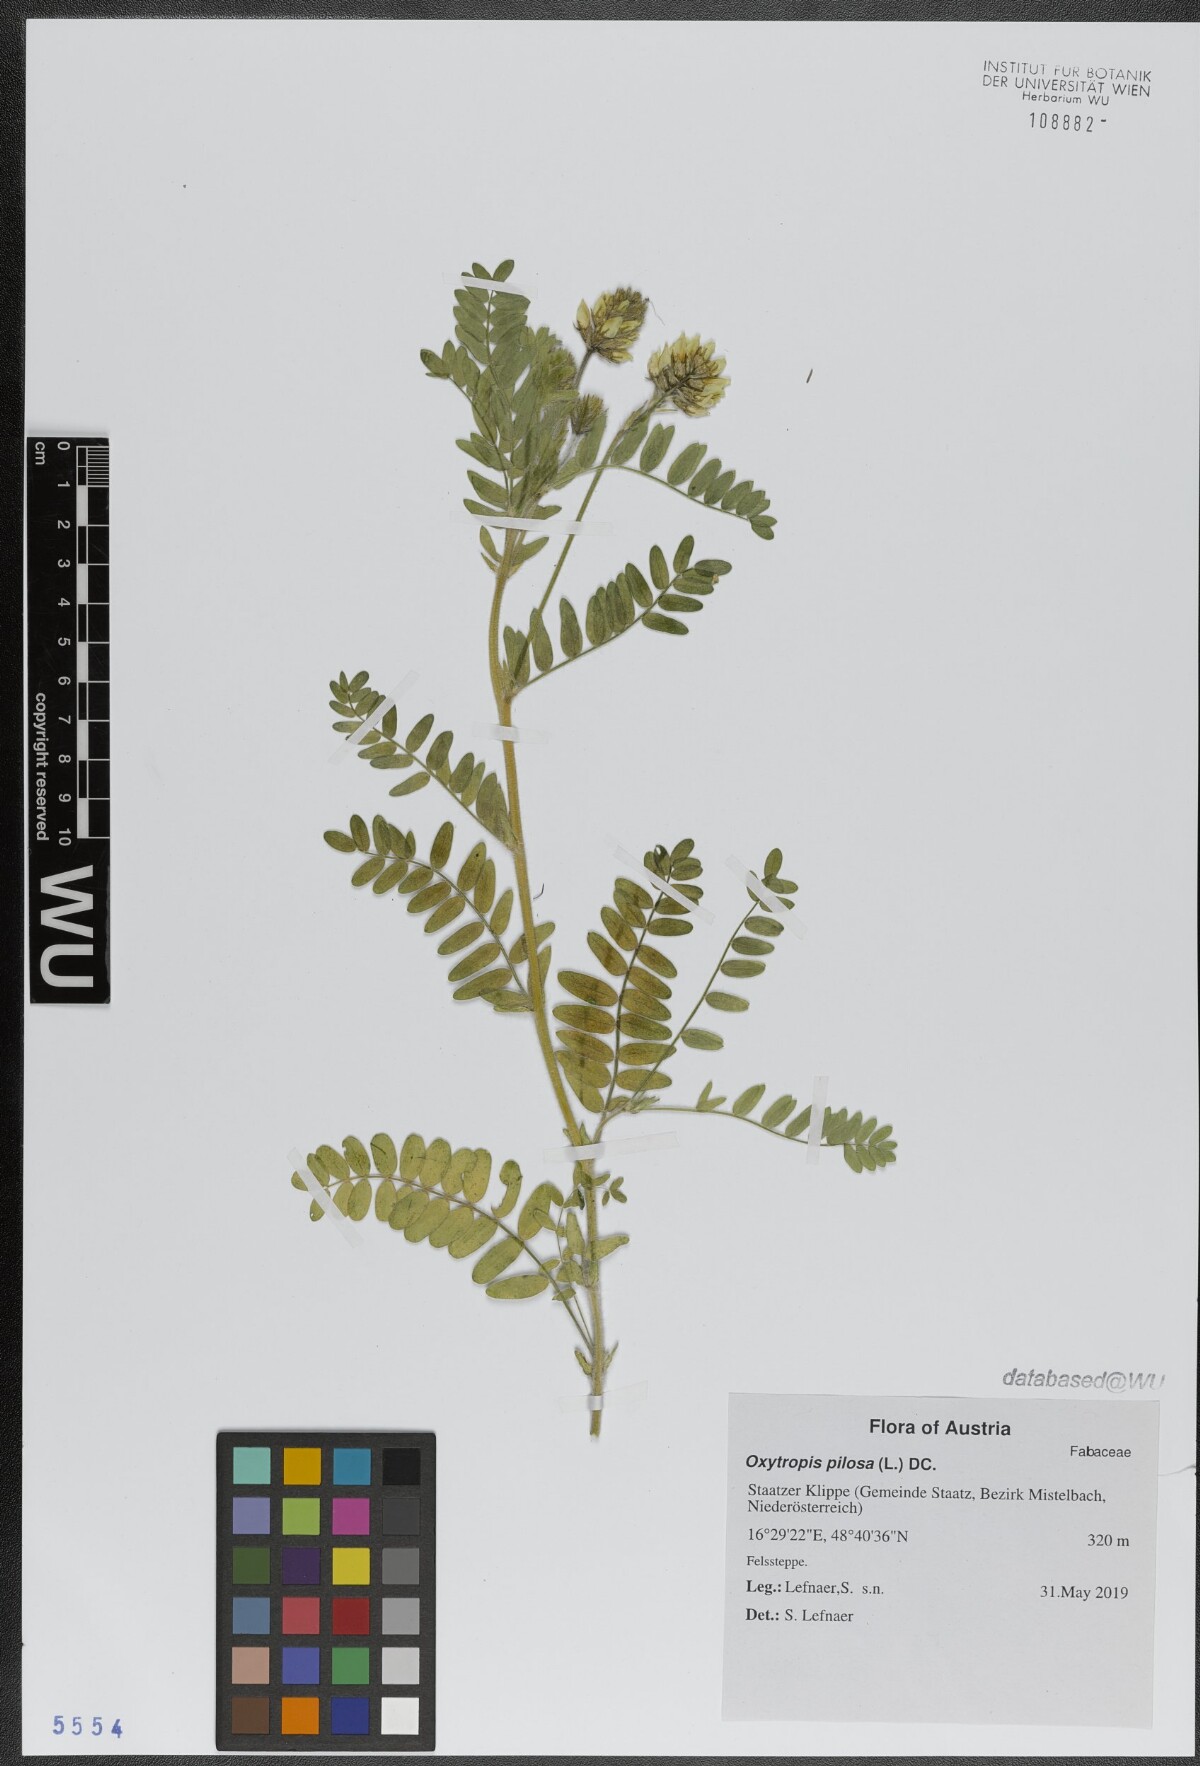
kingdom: Plantae
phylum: Tracheophyta
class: Magnoliopsida
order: Fabales
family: Fabaceae
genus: Oxytropis
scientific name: Oxytropis pilosa
